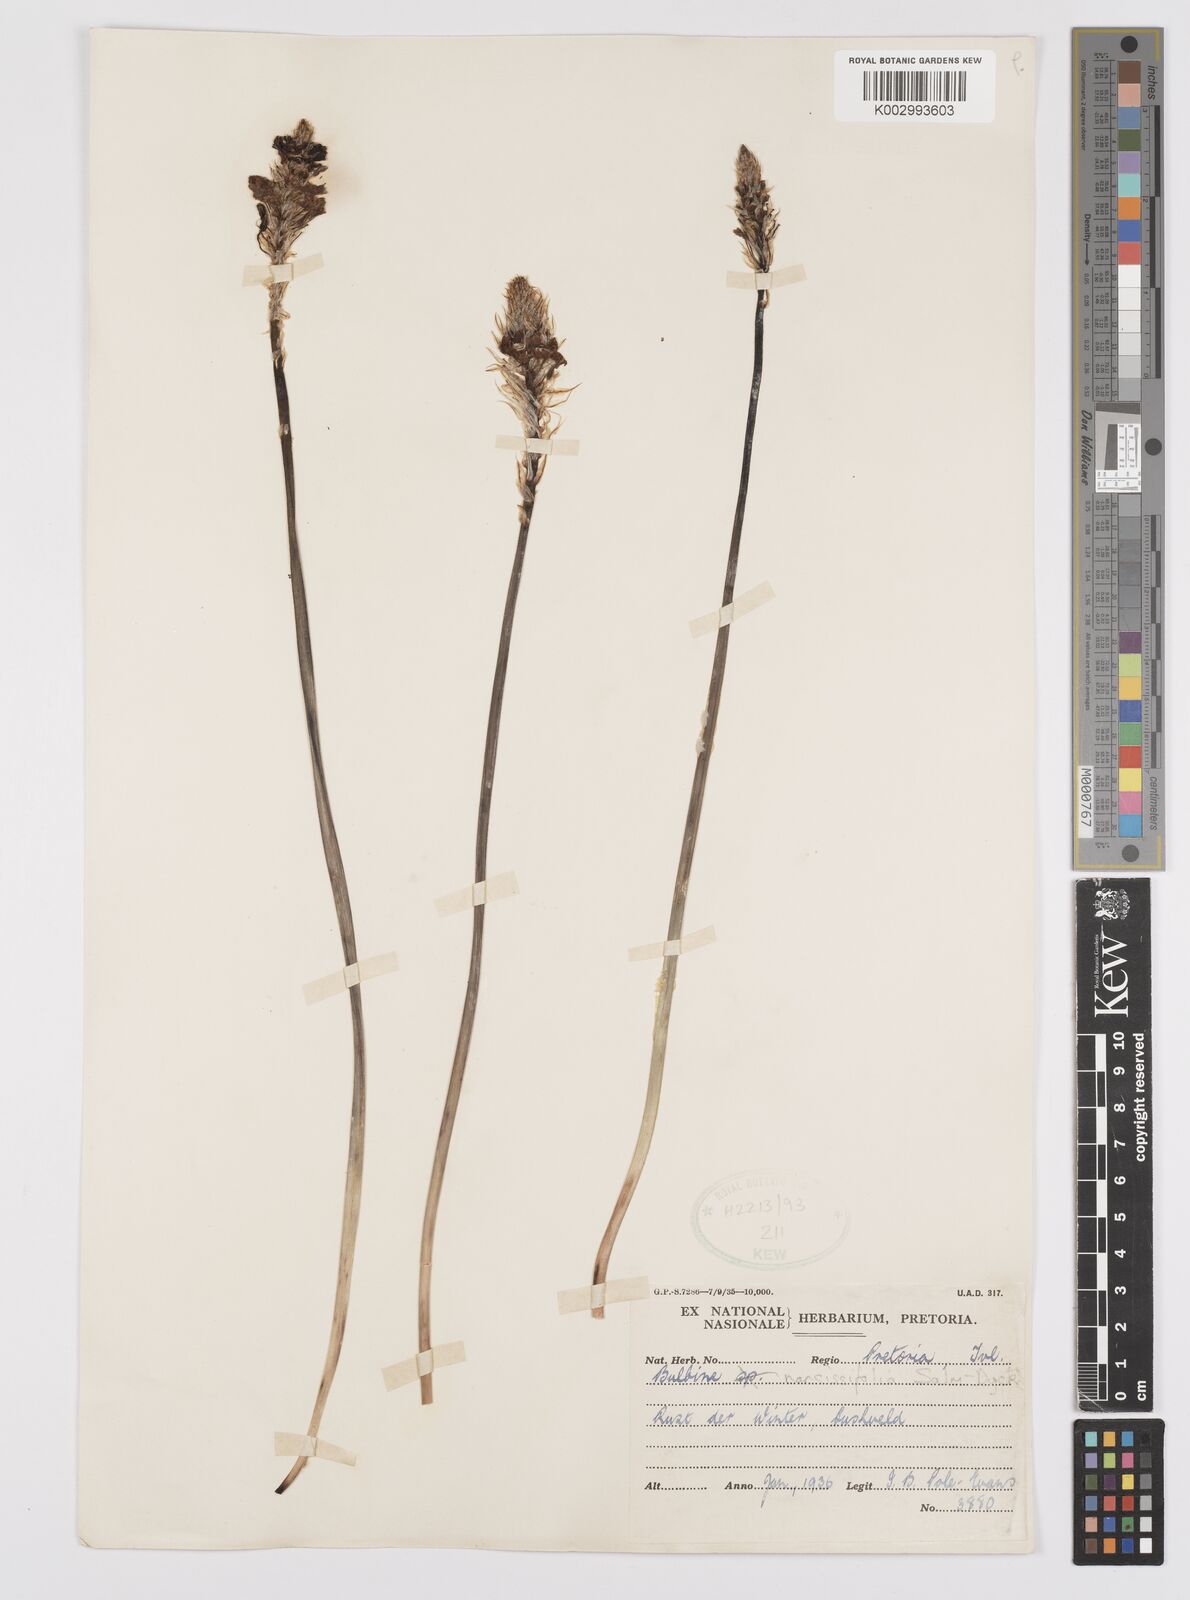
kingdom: Plantae
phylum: Tracheophyta
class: Liliopsida
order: Asparagales
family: Asphodelaceae
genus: Bulbine
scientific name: Bulbine narcissifolia
